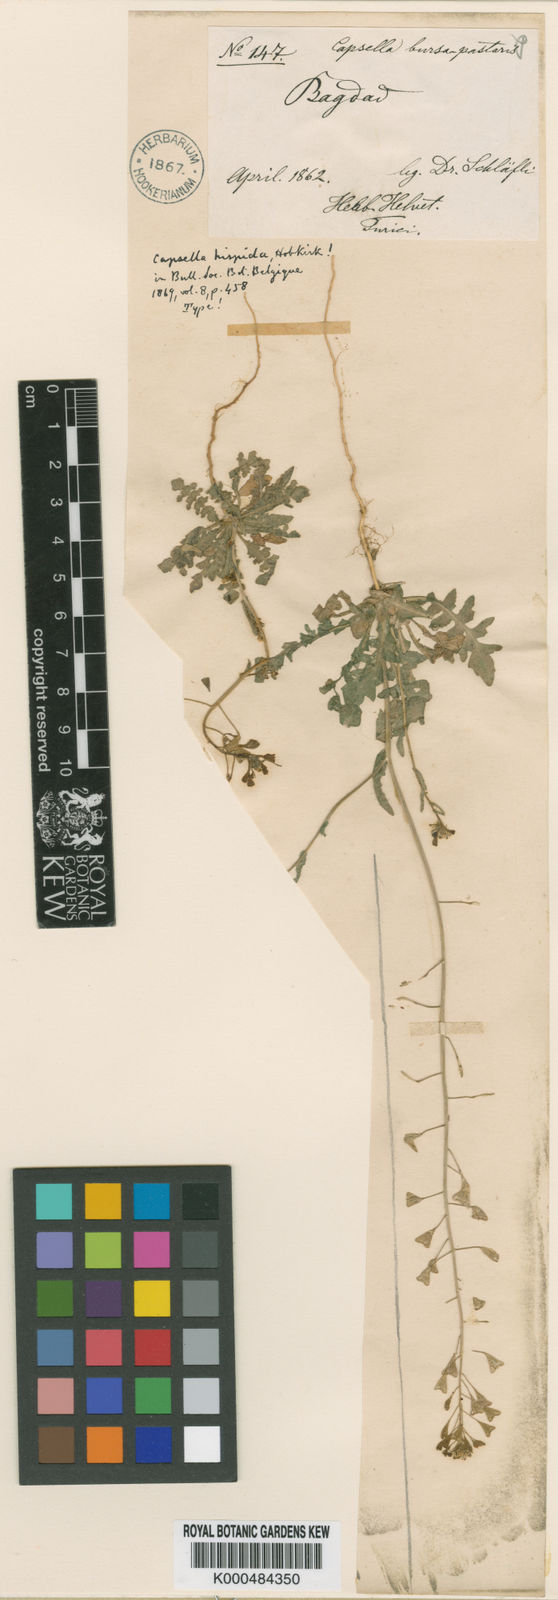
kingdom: Plantae
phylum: Tracheophyta
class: Magnoliopsida
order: Brassicales
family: Brassicaceae
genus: Capsella
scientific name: Capsella bursa-pastoris
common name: Shepherd's purse
